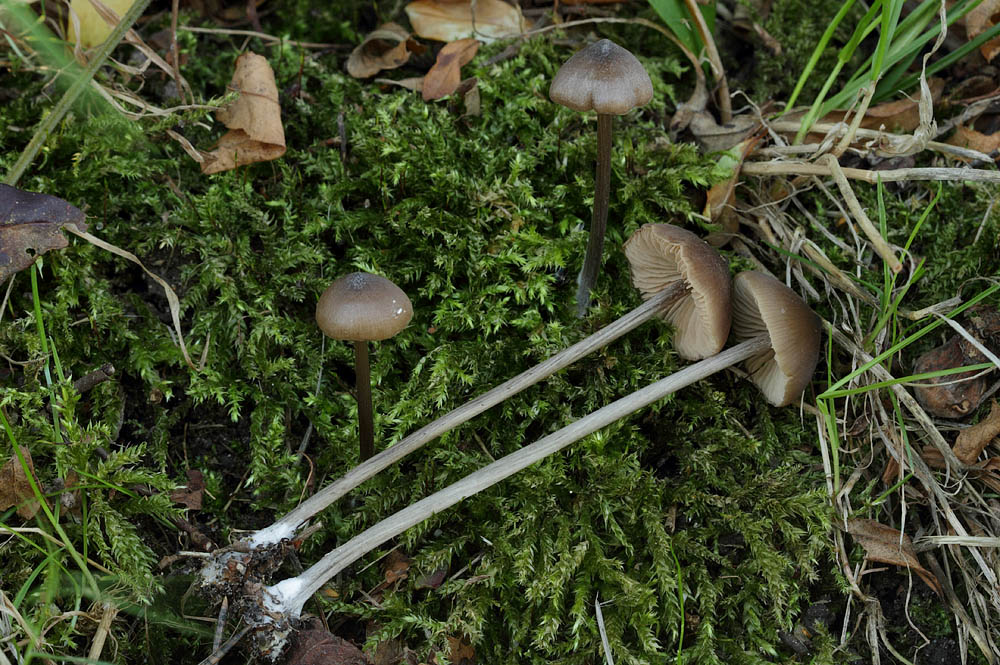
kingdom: Fungi
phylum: Basidiomycota
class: Agaricomycetes
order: Agaricales
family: Entolomataceae
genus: Entoloma
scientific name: Entoloma hebes
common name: krat-rødblad
